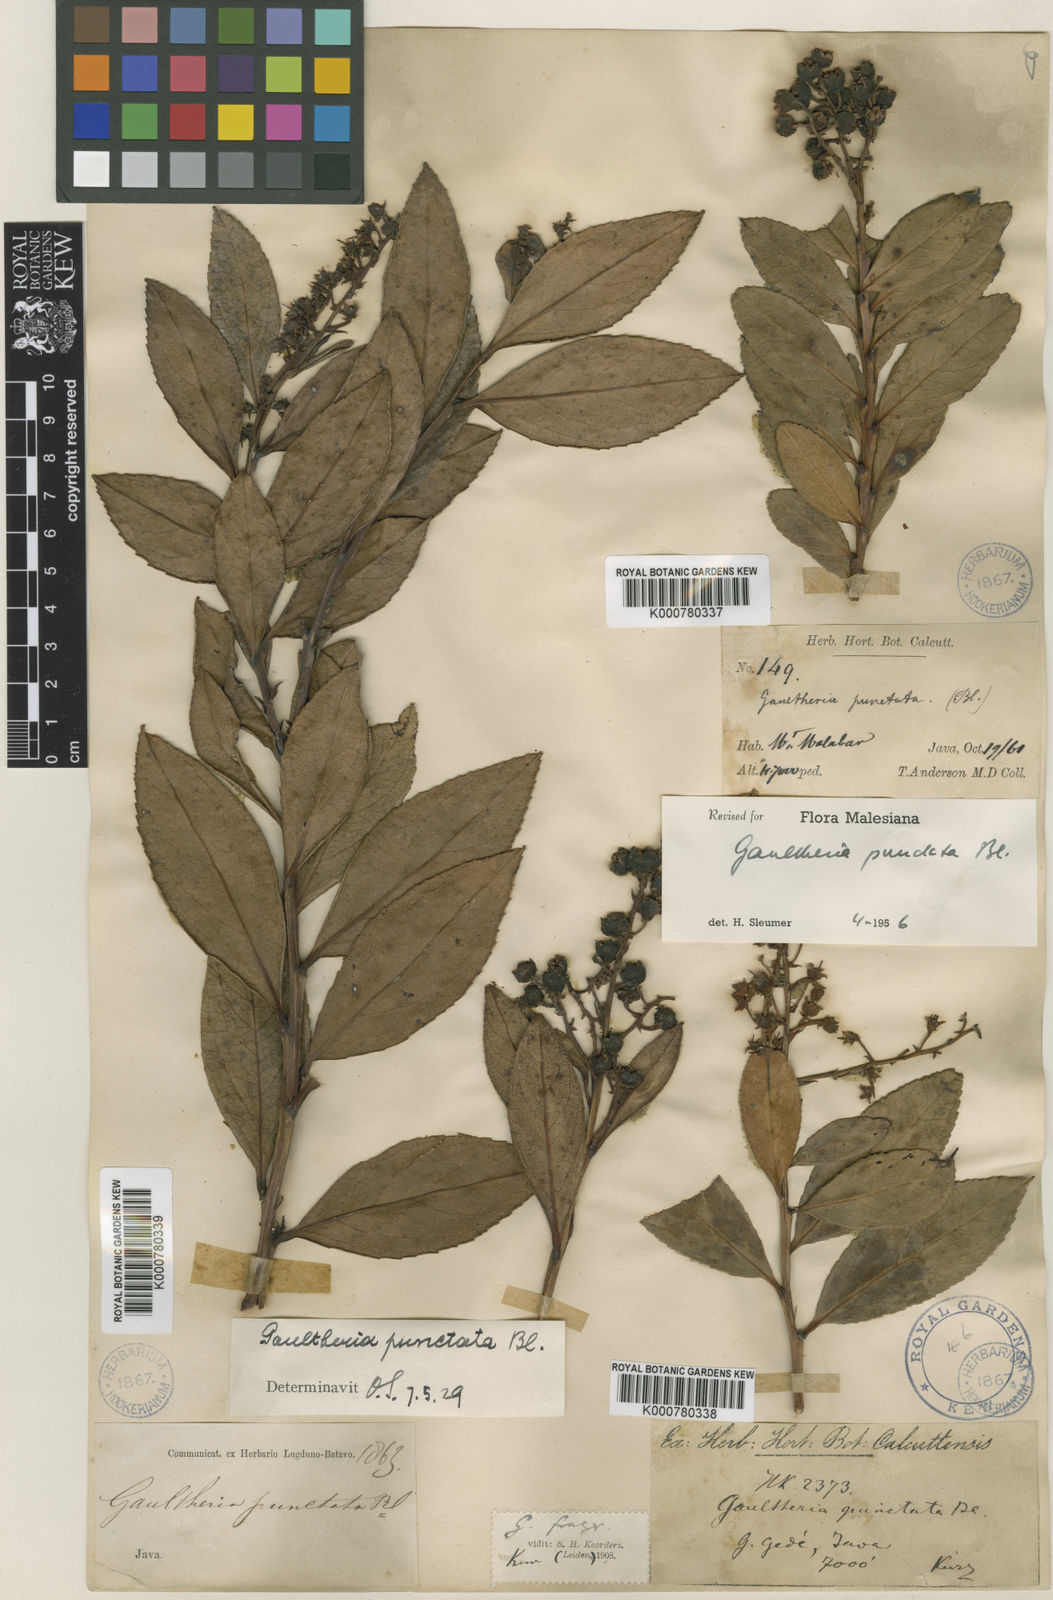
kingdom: Plantae
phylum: Tracheophyta
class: Magnoliopsida
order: Ericales
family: Ericaceae
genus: Gaultheria
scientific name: Gaultheria fragrantissima
